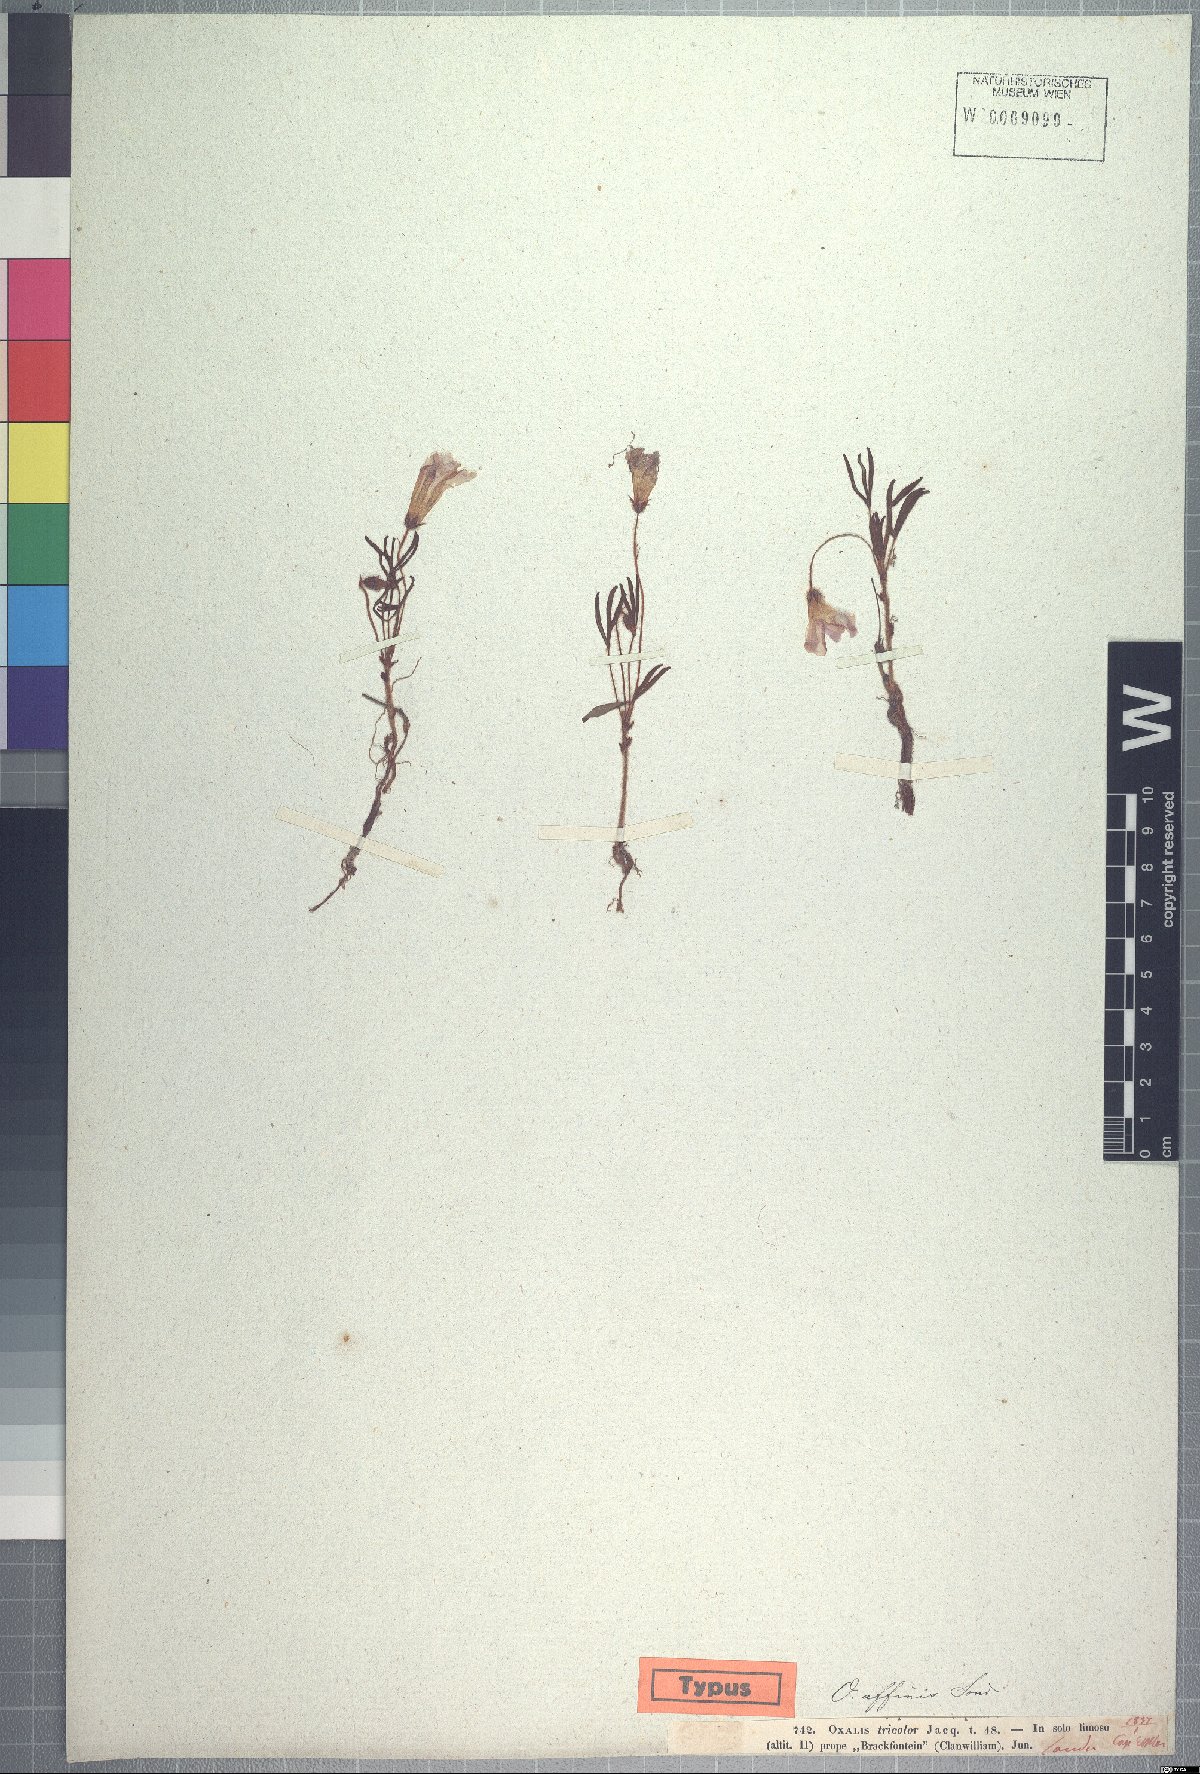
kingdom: Plantae
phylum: Tracheophyta
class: Magnoliopsida
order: Oxalidales
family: Oxalidaceae
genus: Oxalis
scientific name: Oxalis adspersa
